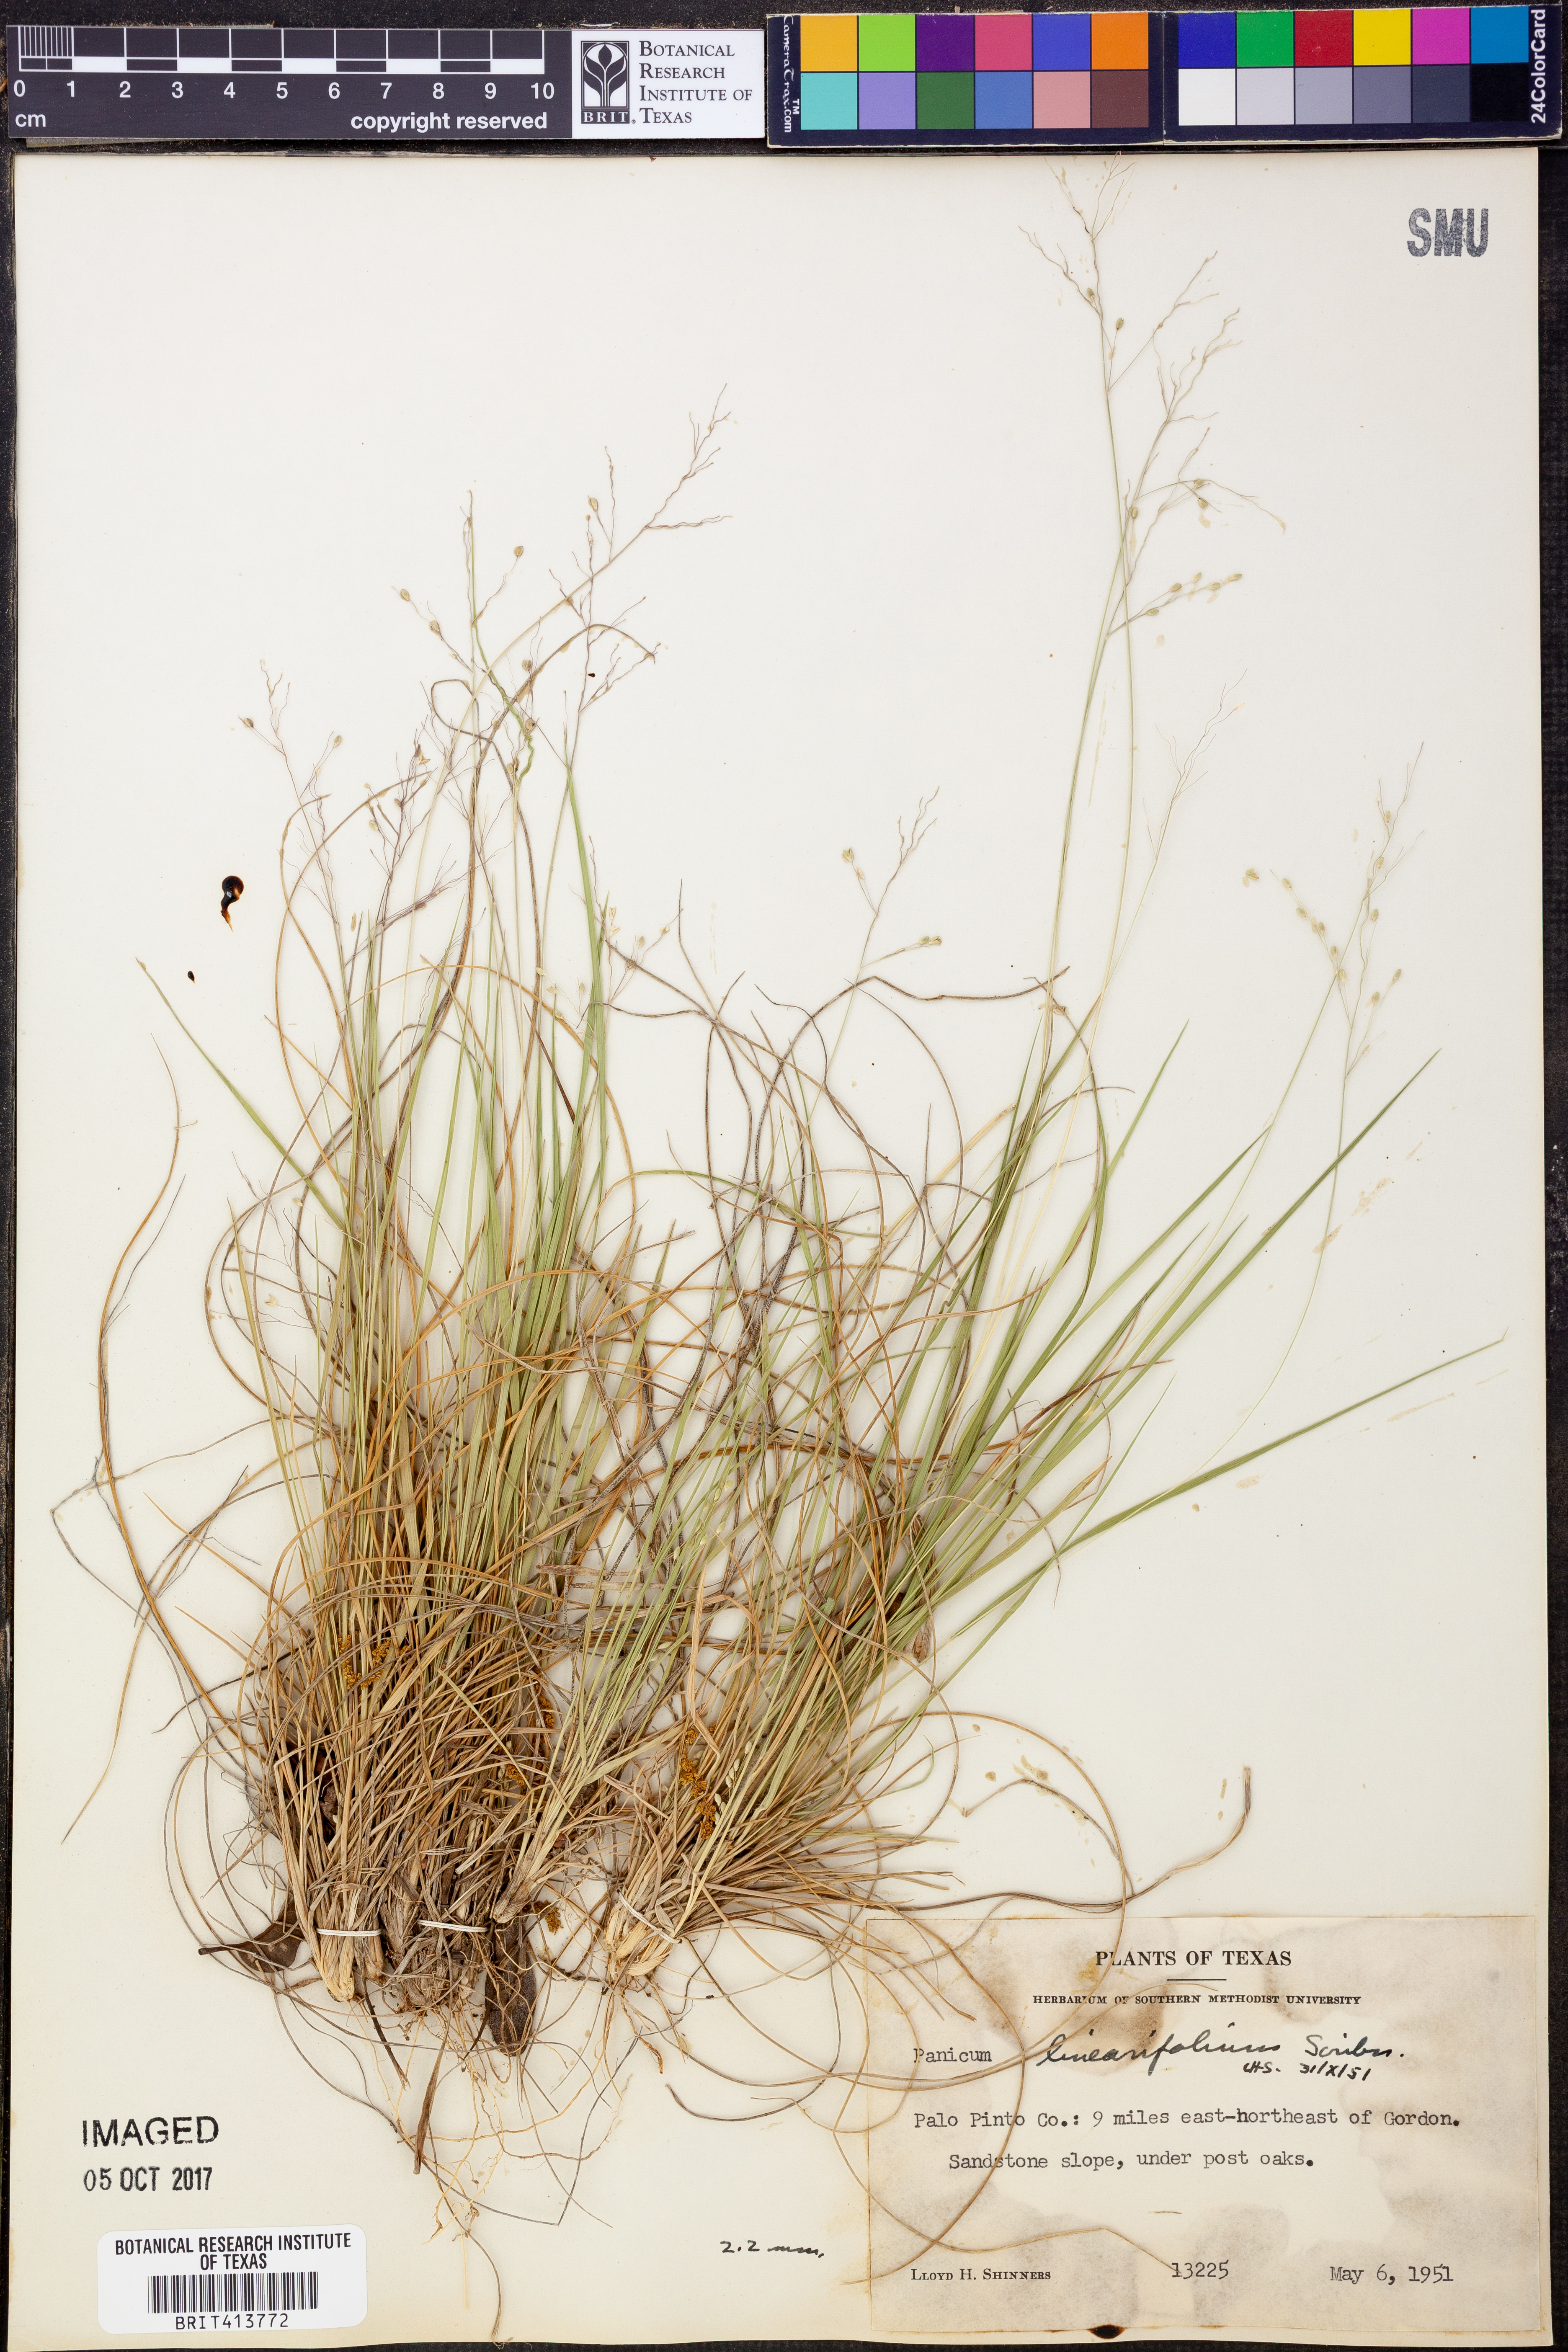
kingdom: Plantae
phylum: Tracheophyta
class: Liliopsida
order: Poales
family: Poaceae
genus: Dichanthelium
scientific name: Dichanthelium linearifolium
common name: Linear-leaved panicgrass
